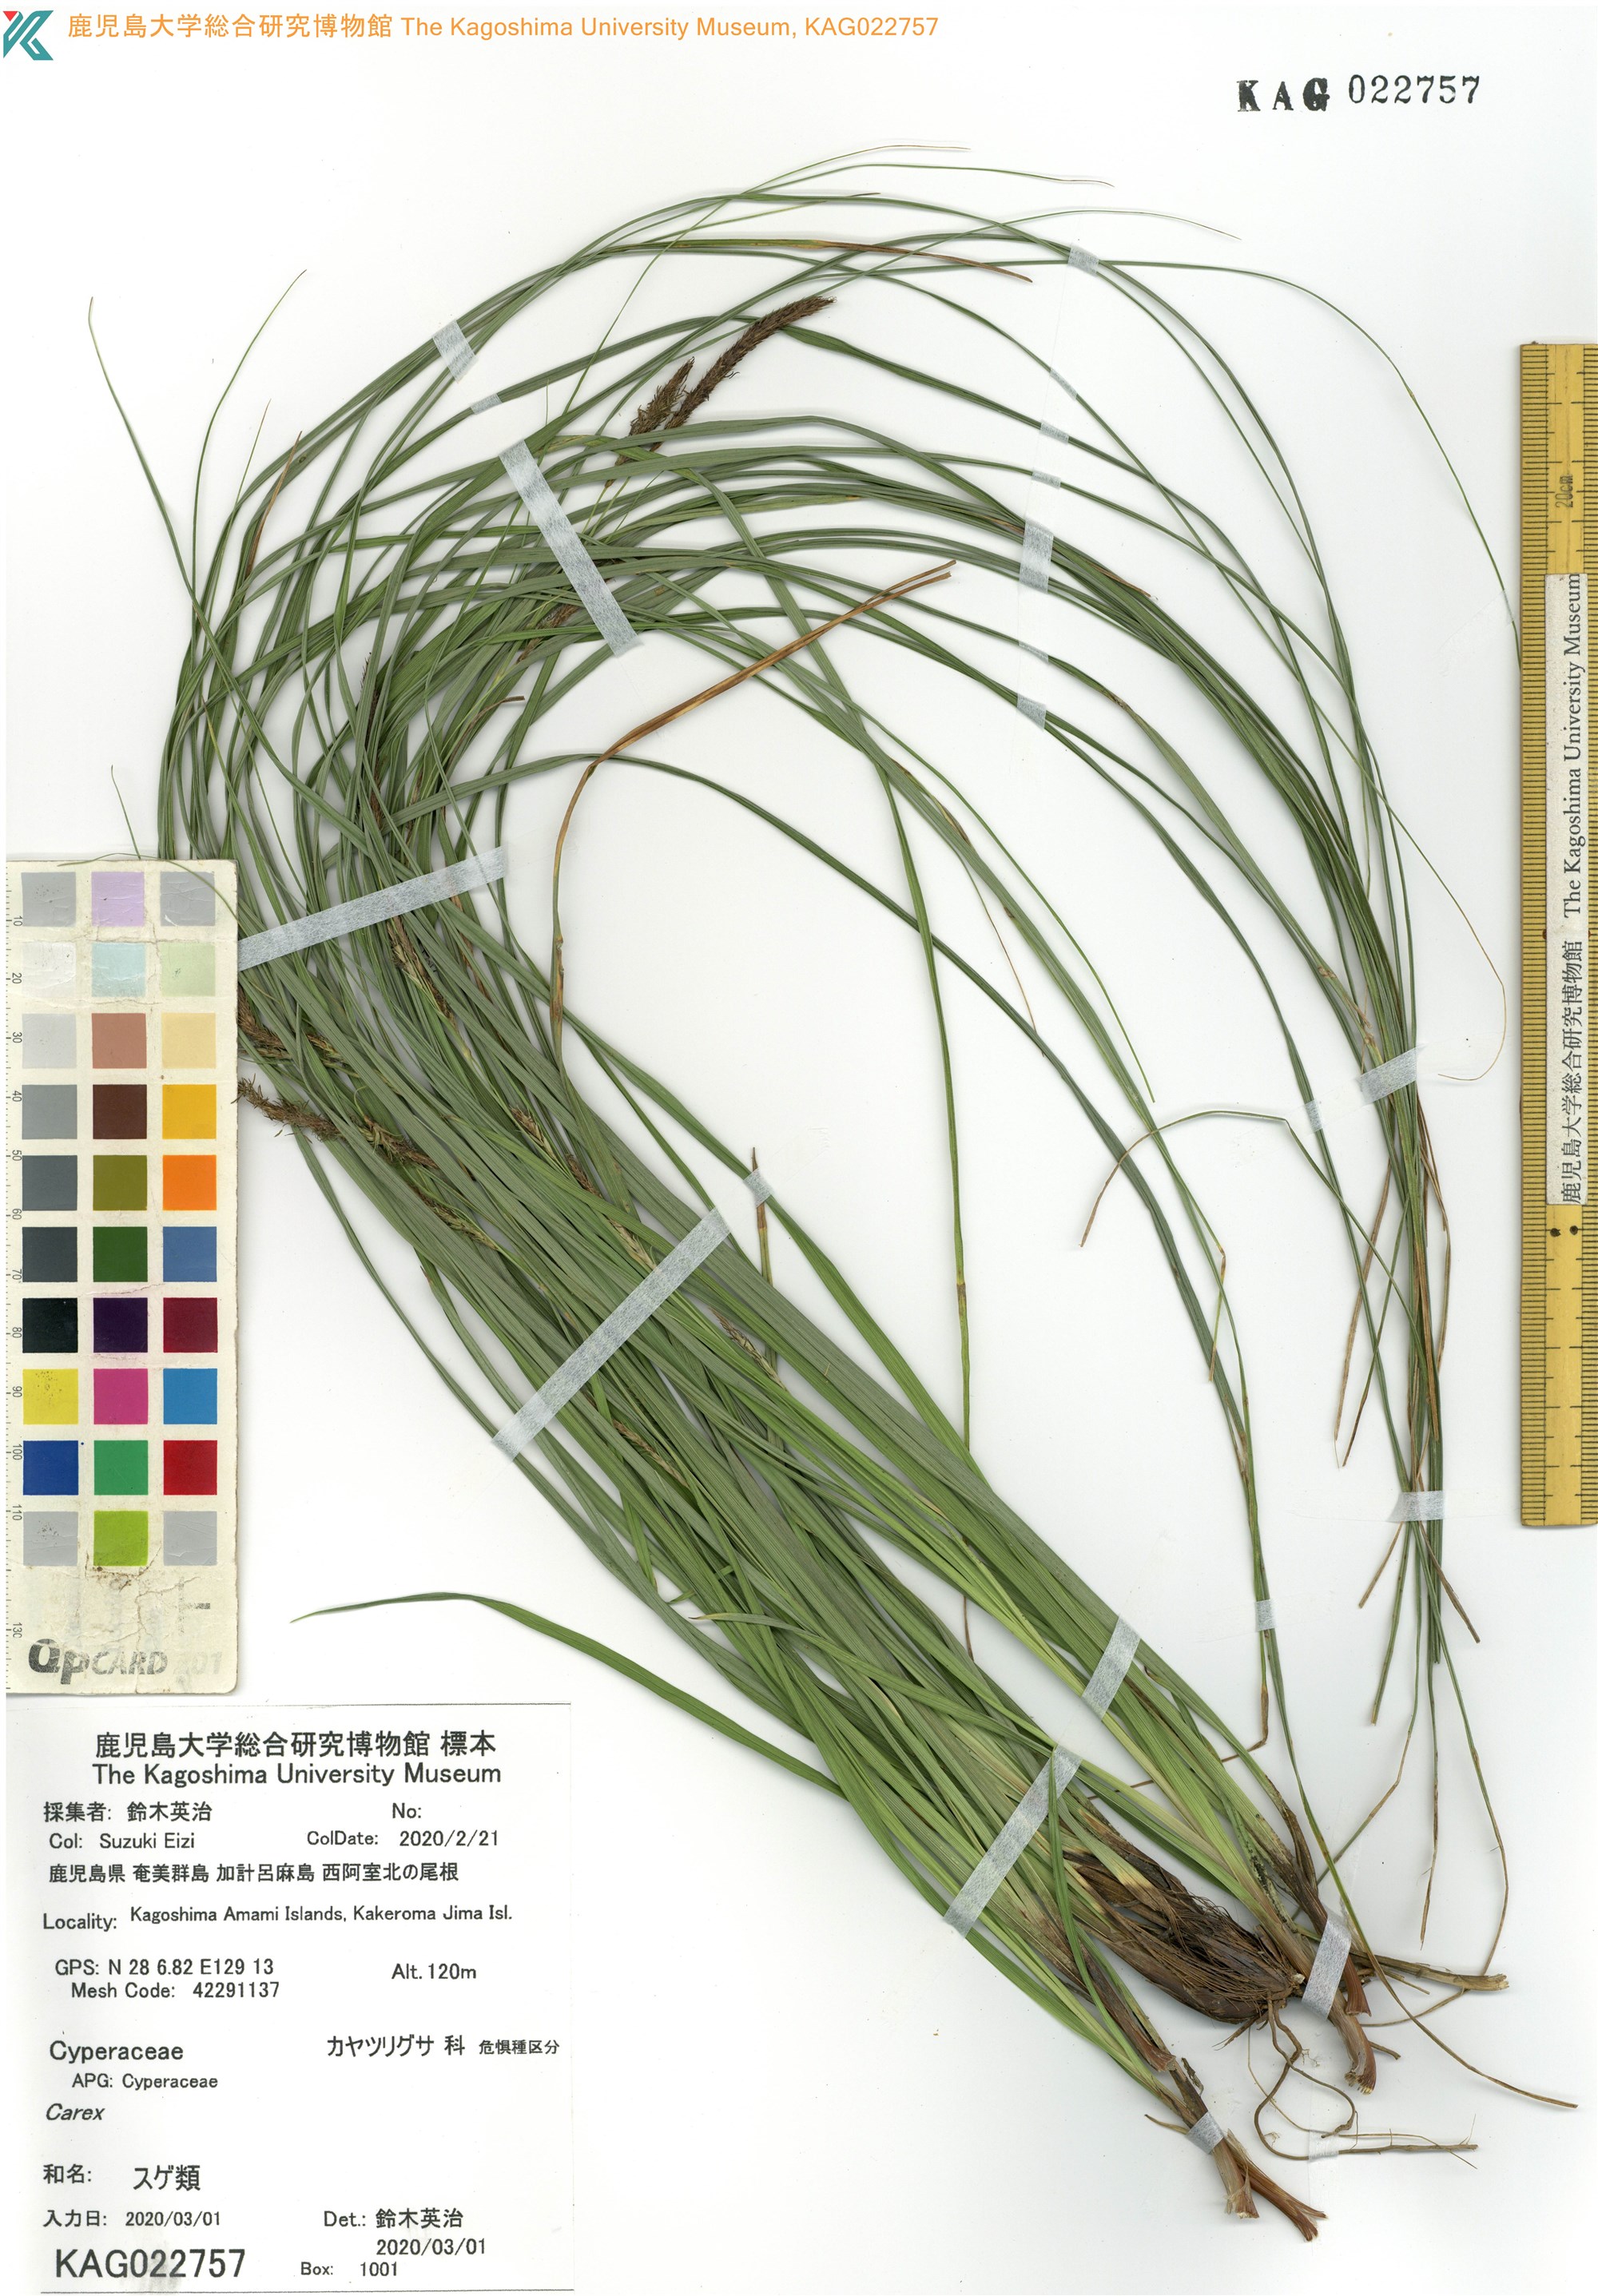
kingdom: Plantae
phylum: Tracheophyta
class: Liliopsida
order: Poales
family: Cyperaceae
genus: Carex
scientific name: Carex
